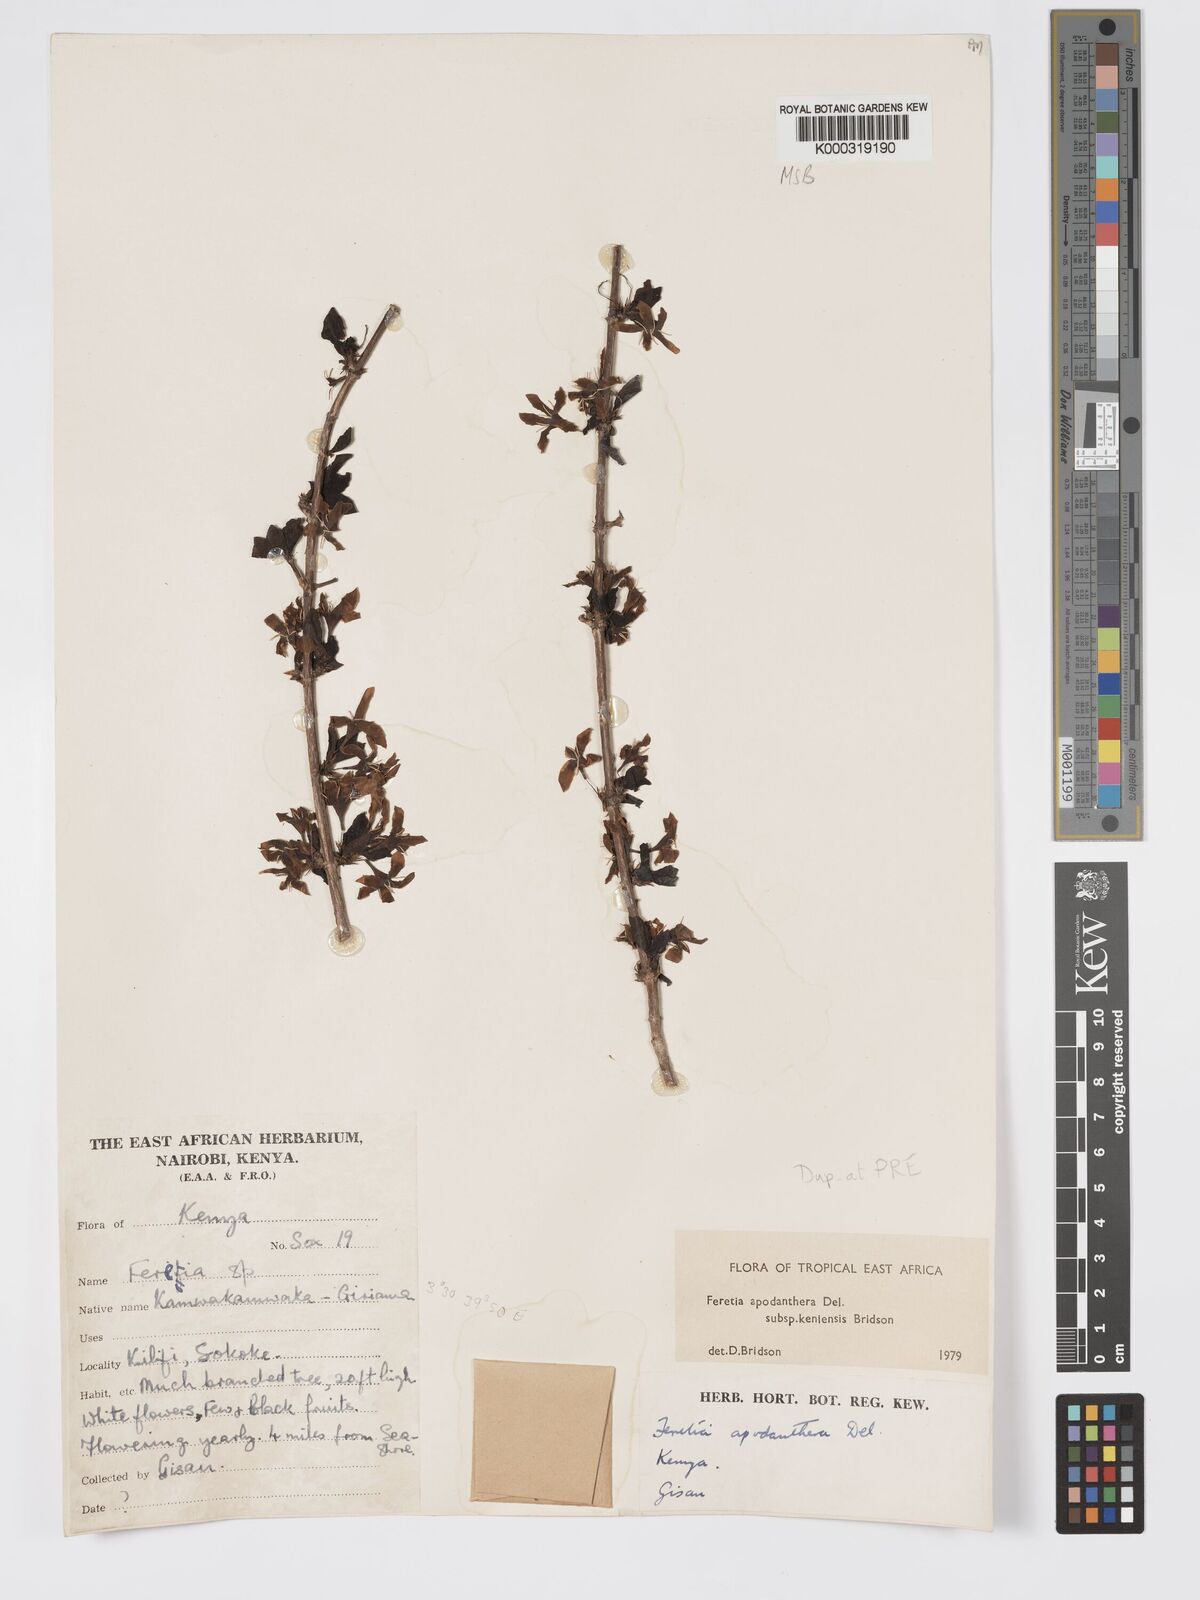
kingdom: Plantae
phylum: Tracheophyta
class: Magnoliopsida
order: Gentianales
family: Rubiaceae
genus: Feretia
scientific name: Feretia apodanthera
